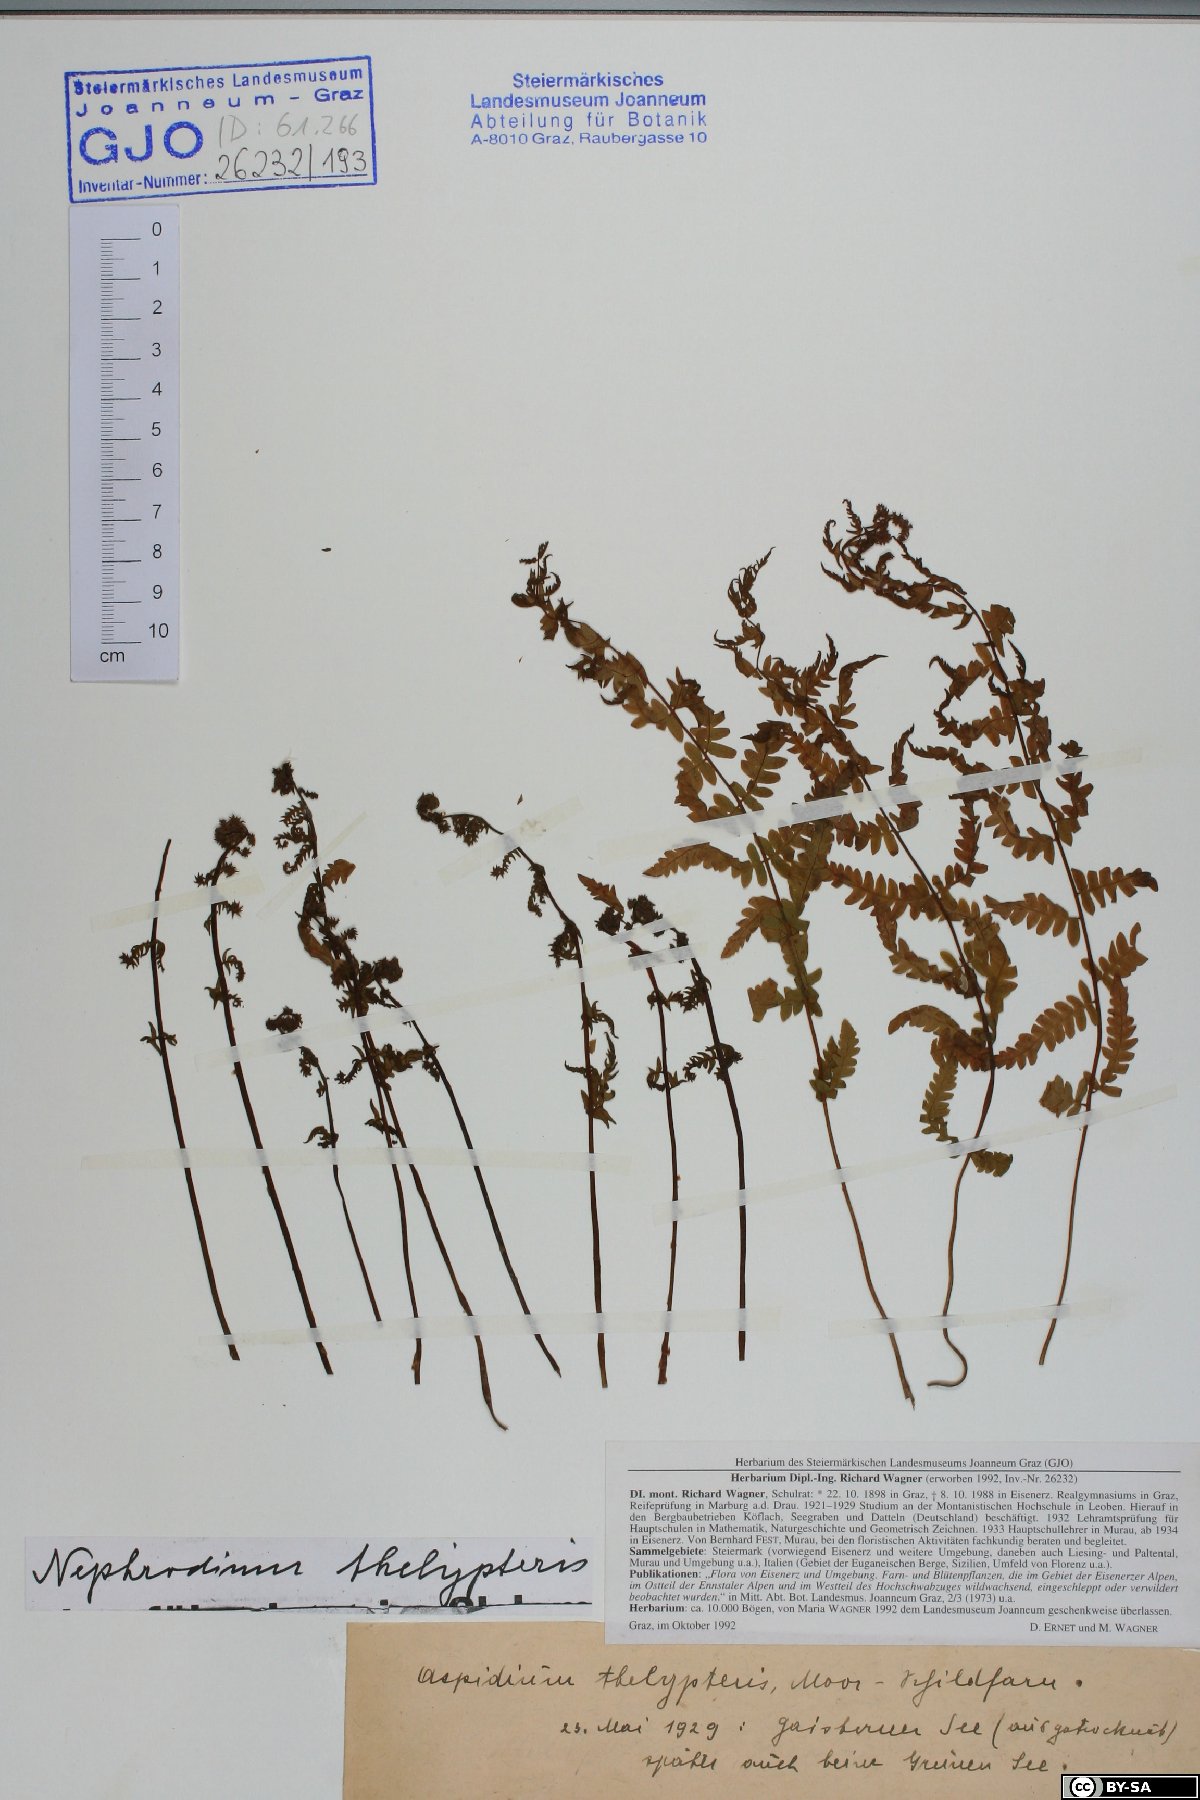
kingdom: Plantae
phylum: Tracheophyta
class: Polypodiopsida
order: Polypodiales
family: Thelypteridaceae
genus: Thelypteris
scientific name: Thelypteris palustris
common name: Marsh fern
